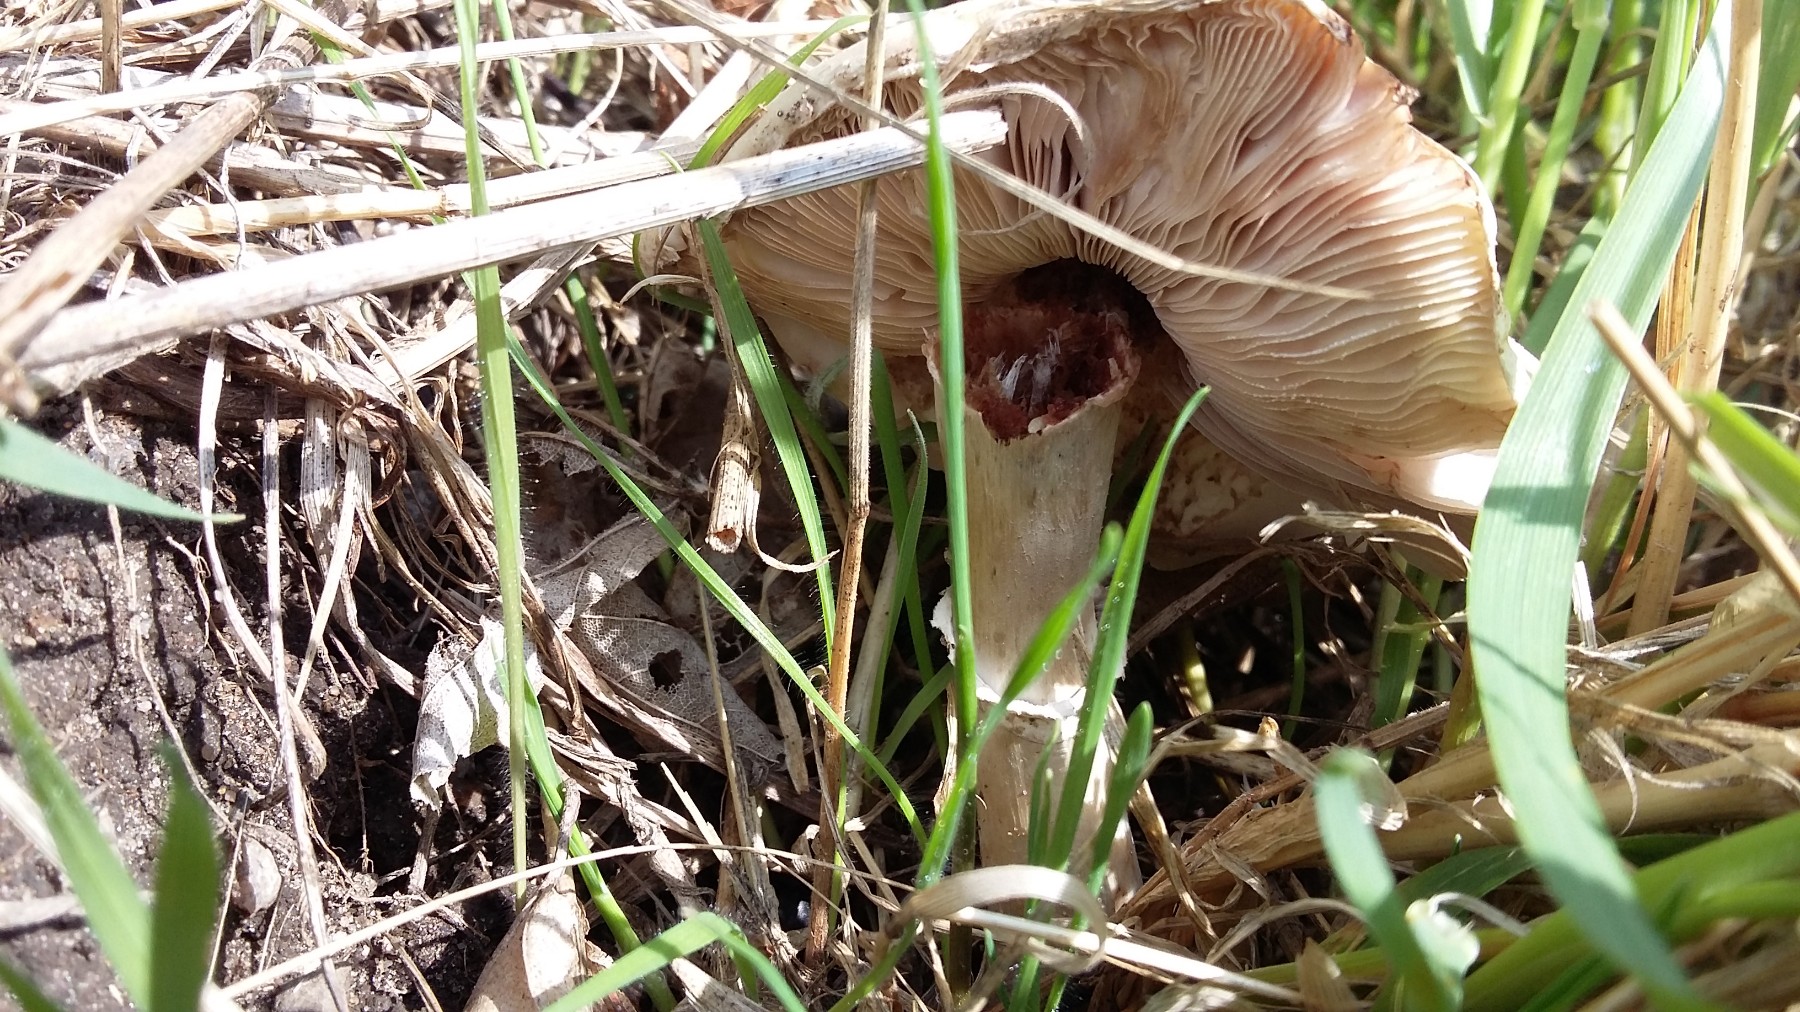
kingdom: Fungi
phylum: Basidiomycota
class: Agaricomycetes
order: Agaricales
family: Agaricaceae
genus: Leucoagaricus
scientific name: Leucoagaricus leucothites
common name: rosabladet silkehat
